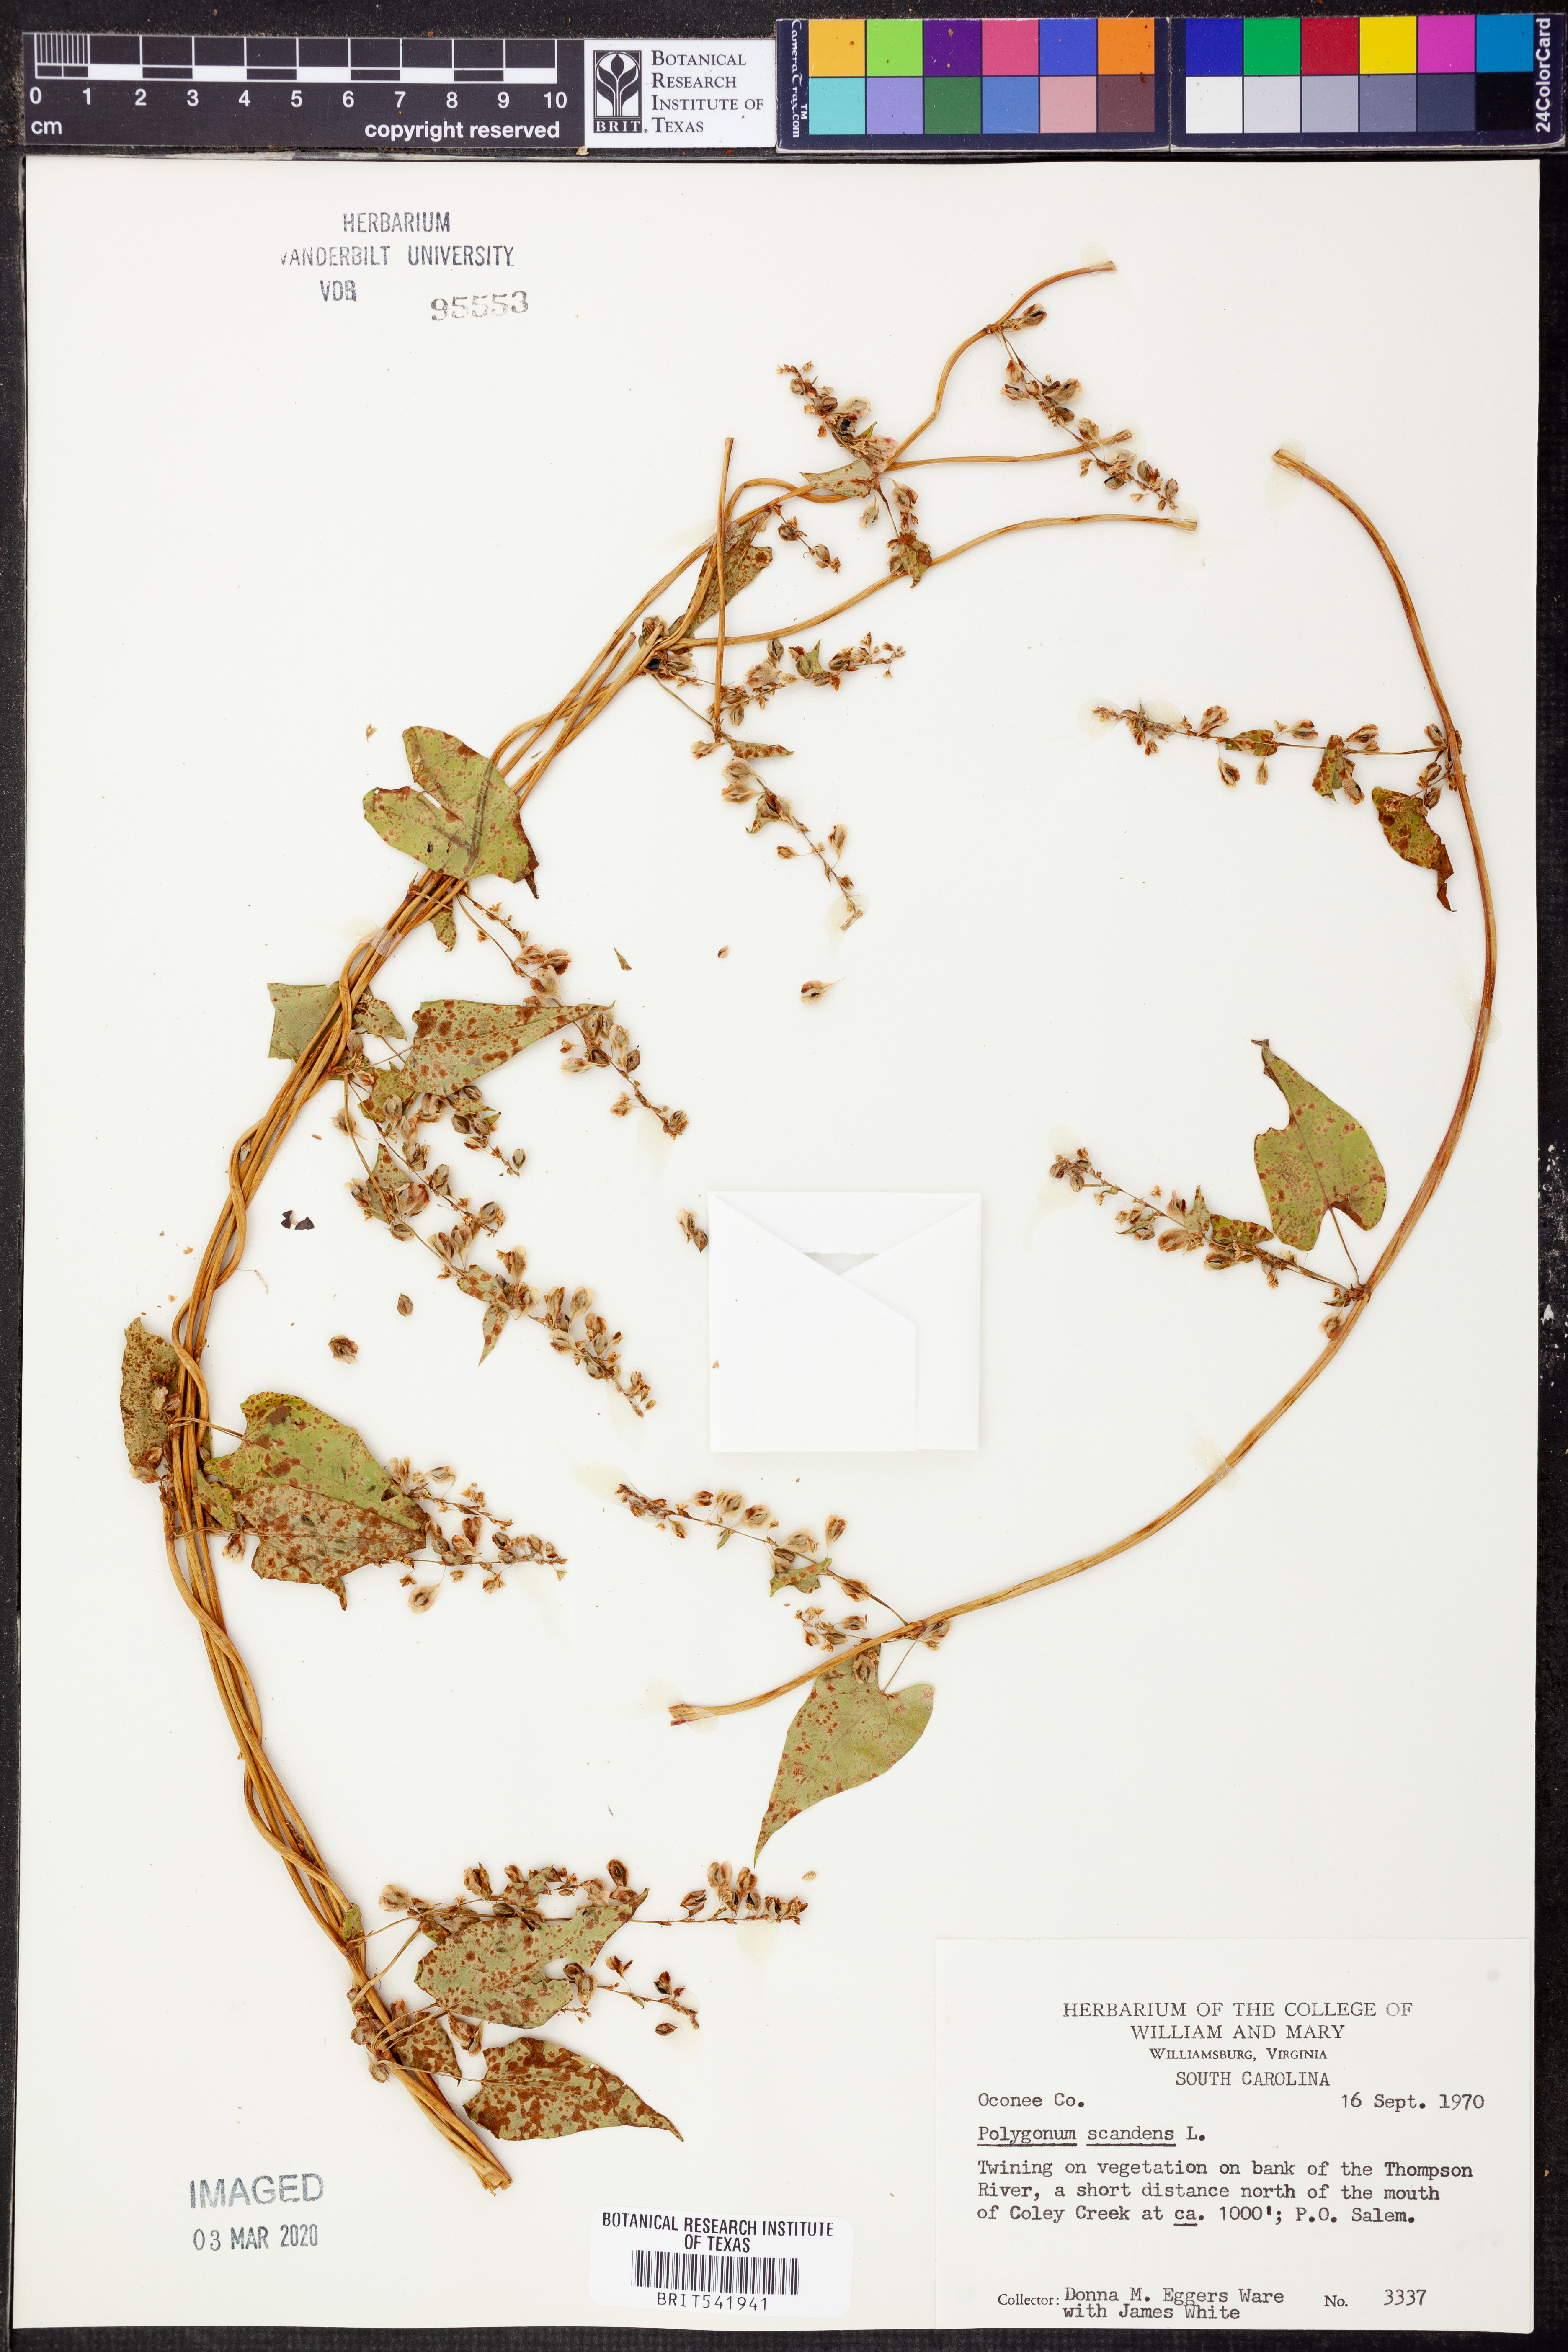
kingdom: Plantae
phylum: Tracheophyta
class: Magnoliopsida
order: Caryophyllales
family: Polygonaceae
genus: Fallopia
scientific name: Fallopia scandens
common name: Climbing false buckwheat
